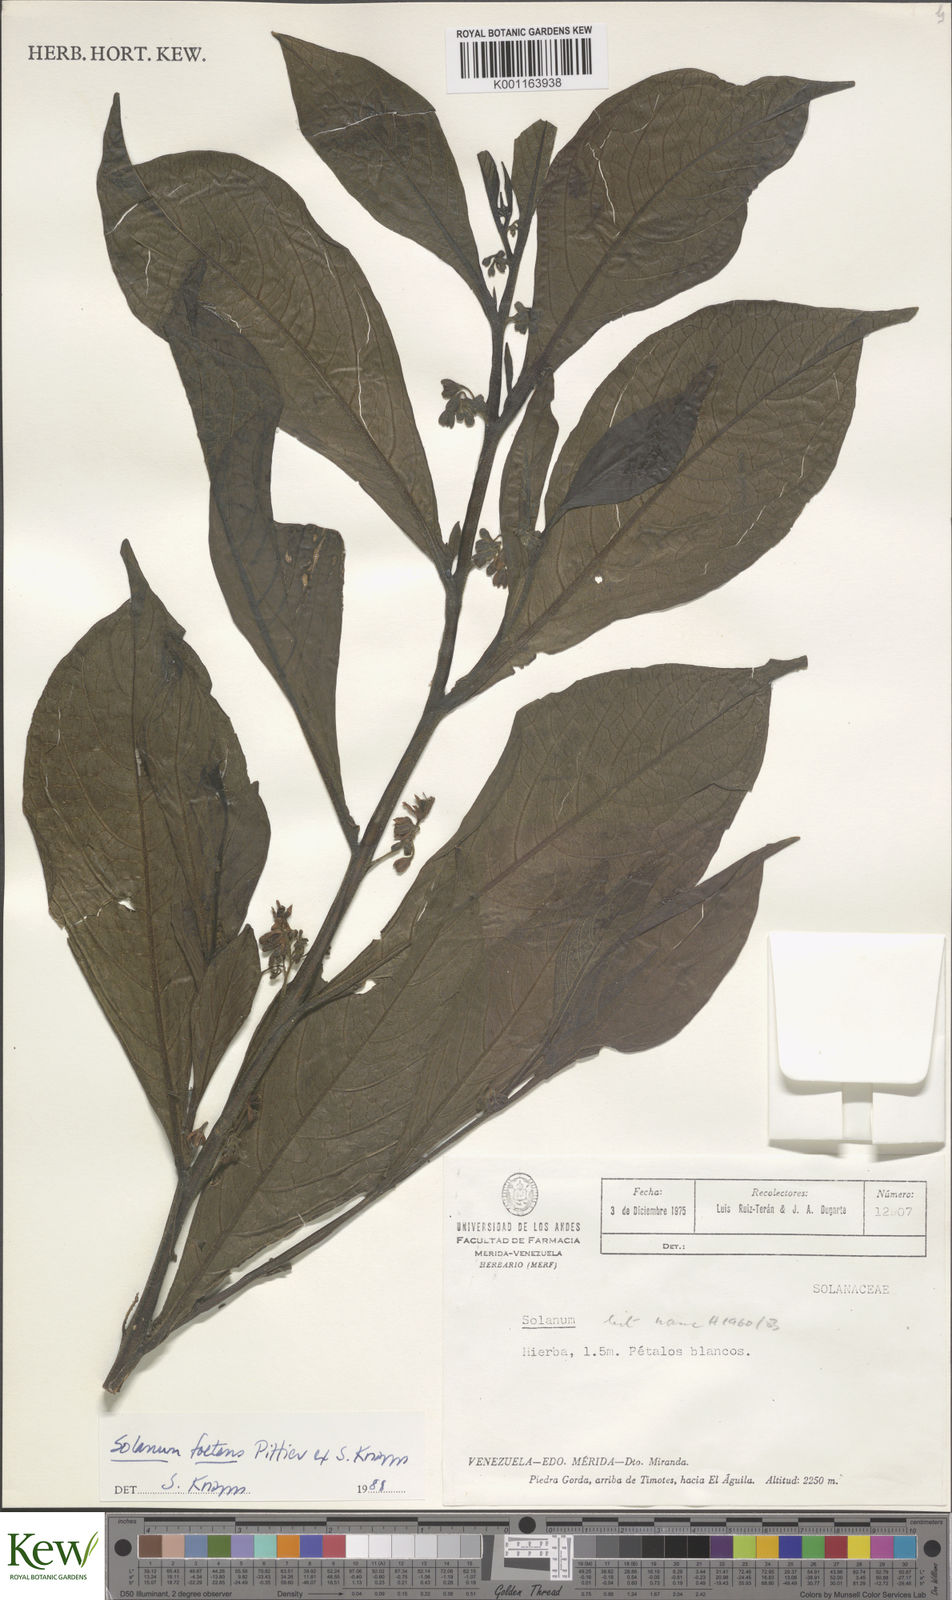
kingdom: Plantae
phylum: Tracheophyta
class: Magnoliopsida
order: Solanales
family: Solanaceae
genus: Solanum
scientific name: Solanum foetens
